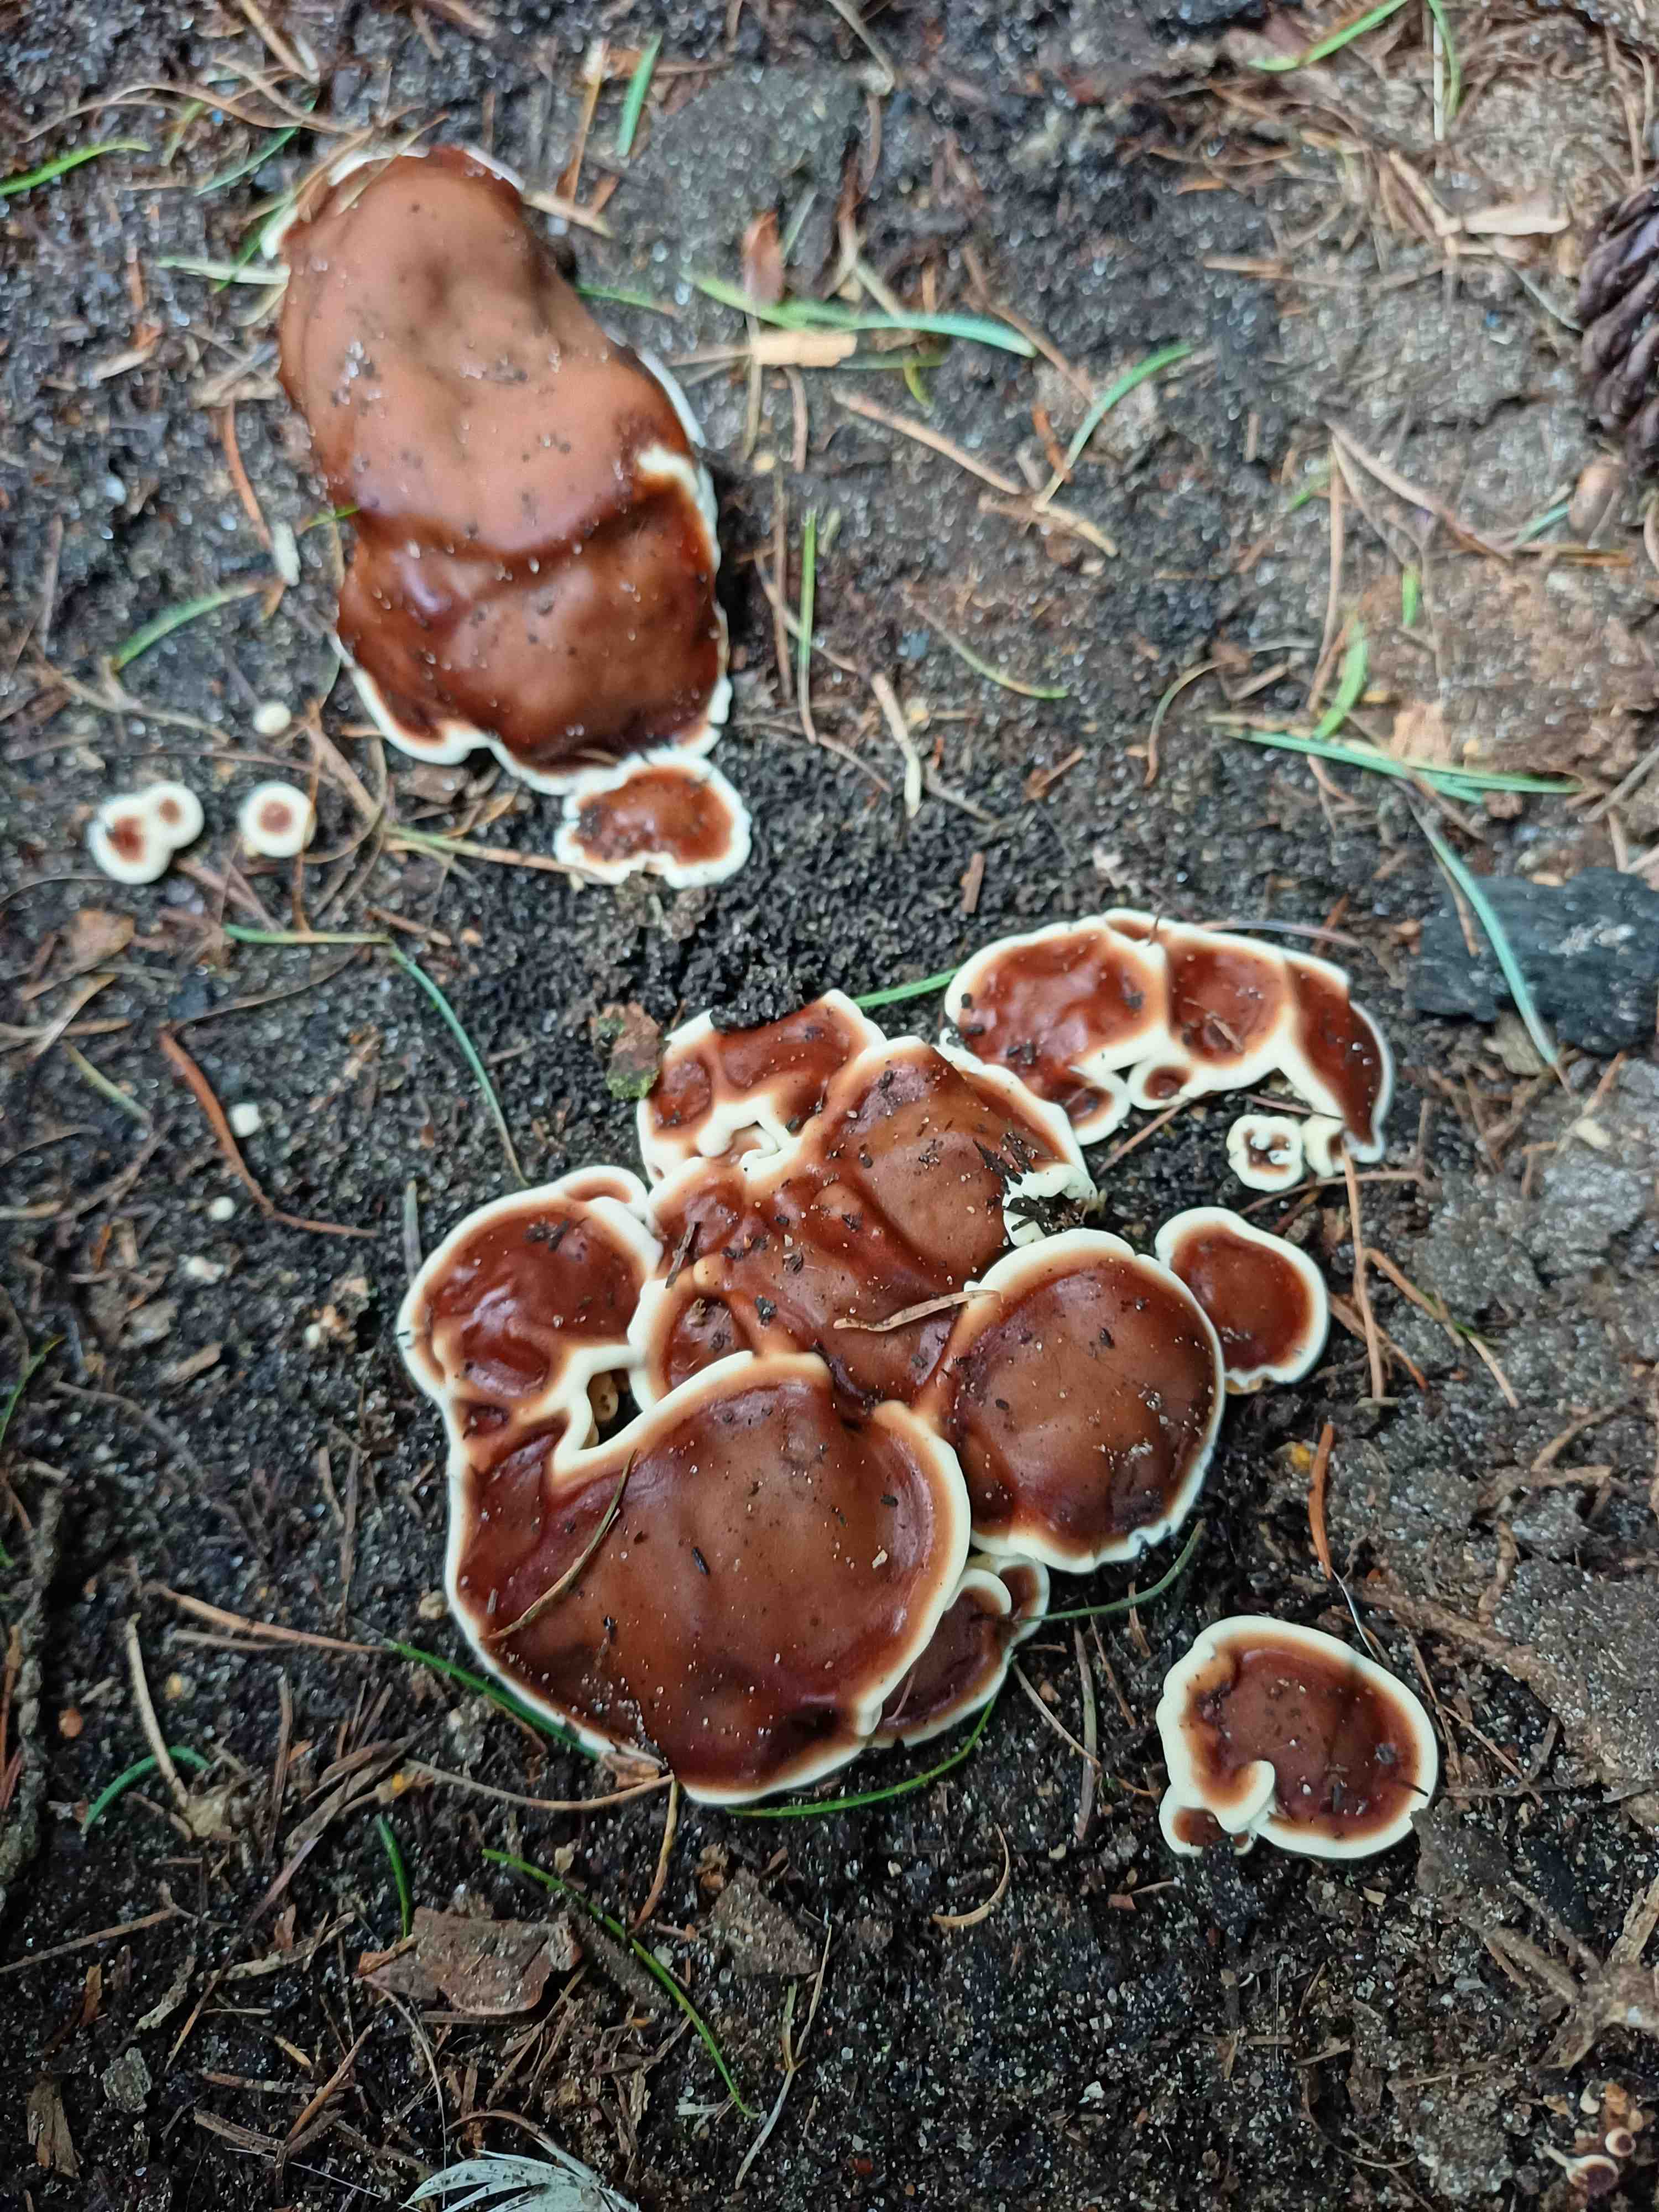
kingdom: Fungi
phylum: Ascomycota
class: Pezizomycetes
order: Pezizales
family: Rhizinaceae
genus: Rhizina
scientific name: Rhizina undulata
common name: rodmorkel
